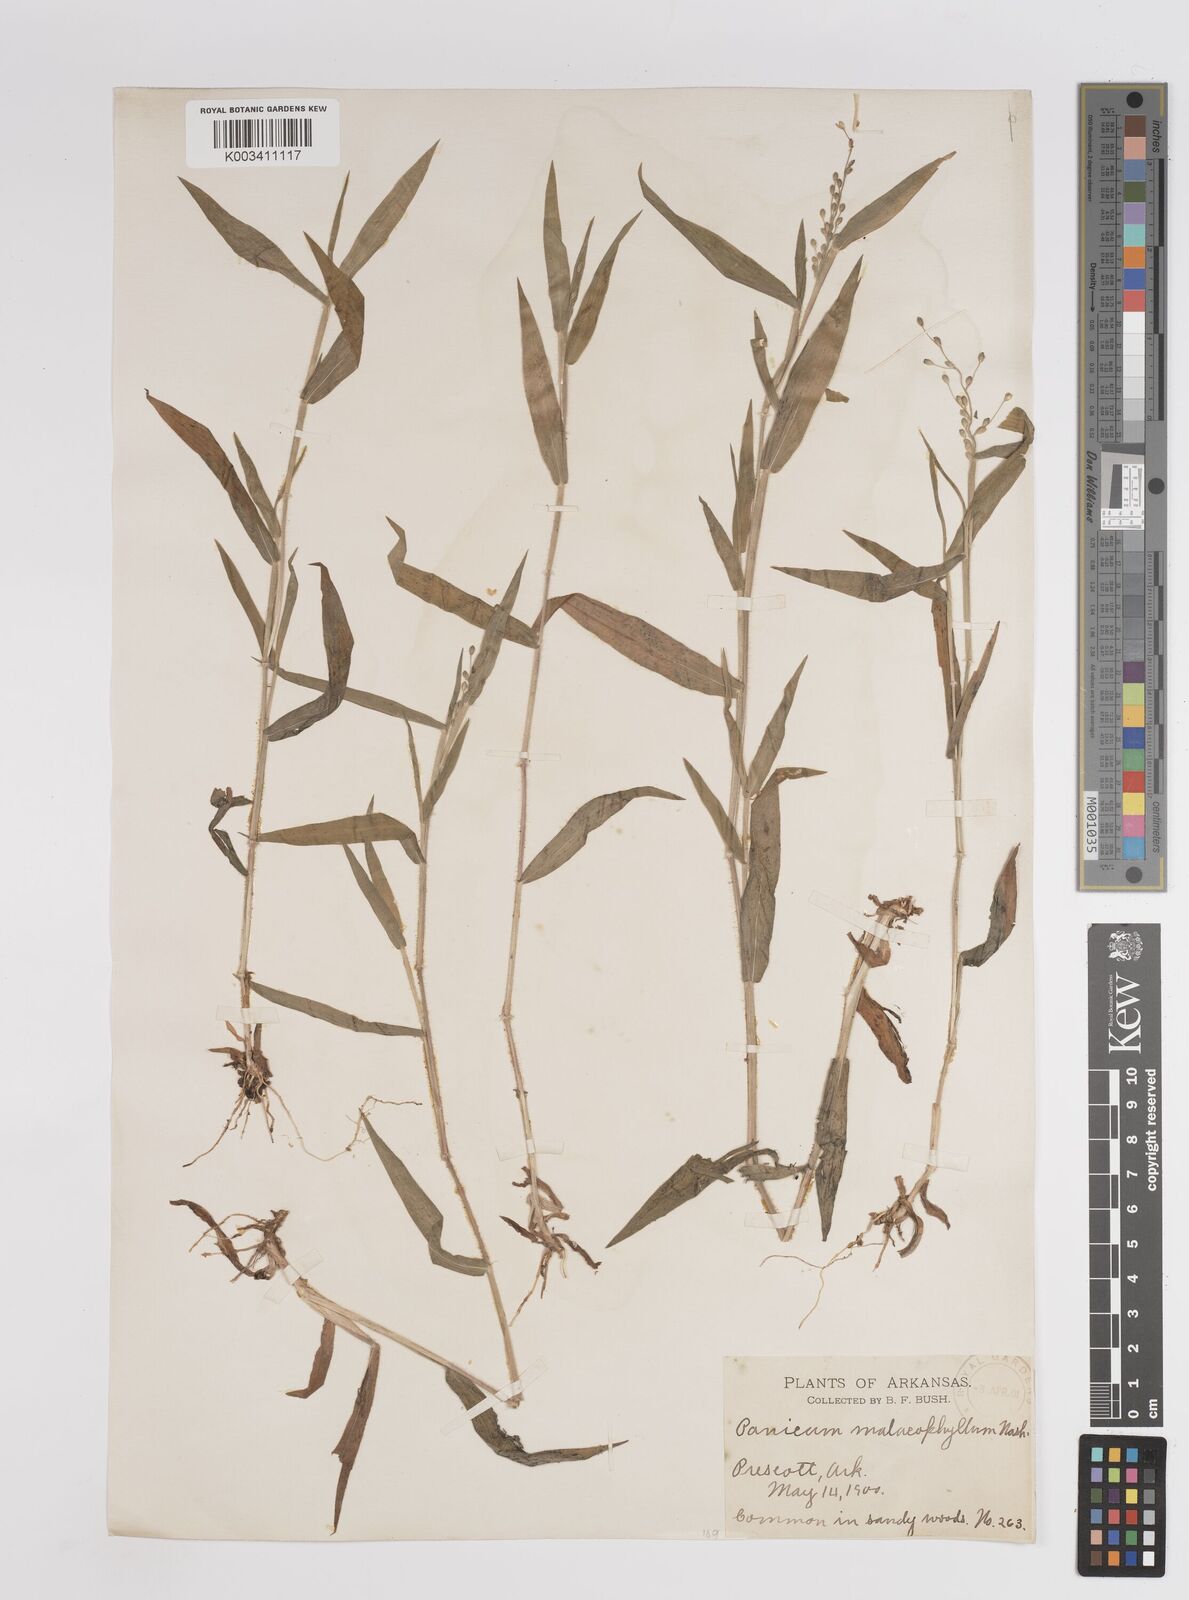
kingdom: Plantae
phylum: Tracheophyta
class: Liliopsida
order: Poales
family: Poaceae
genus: Dichanthelium
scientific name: Dichanthelium malacophyllum
